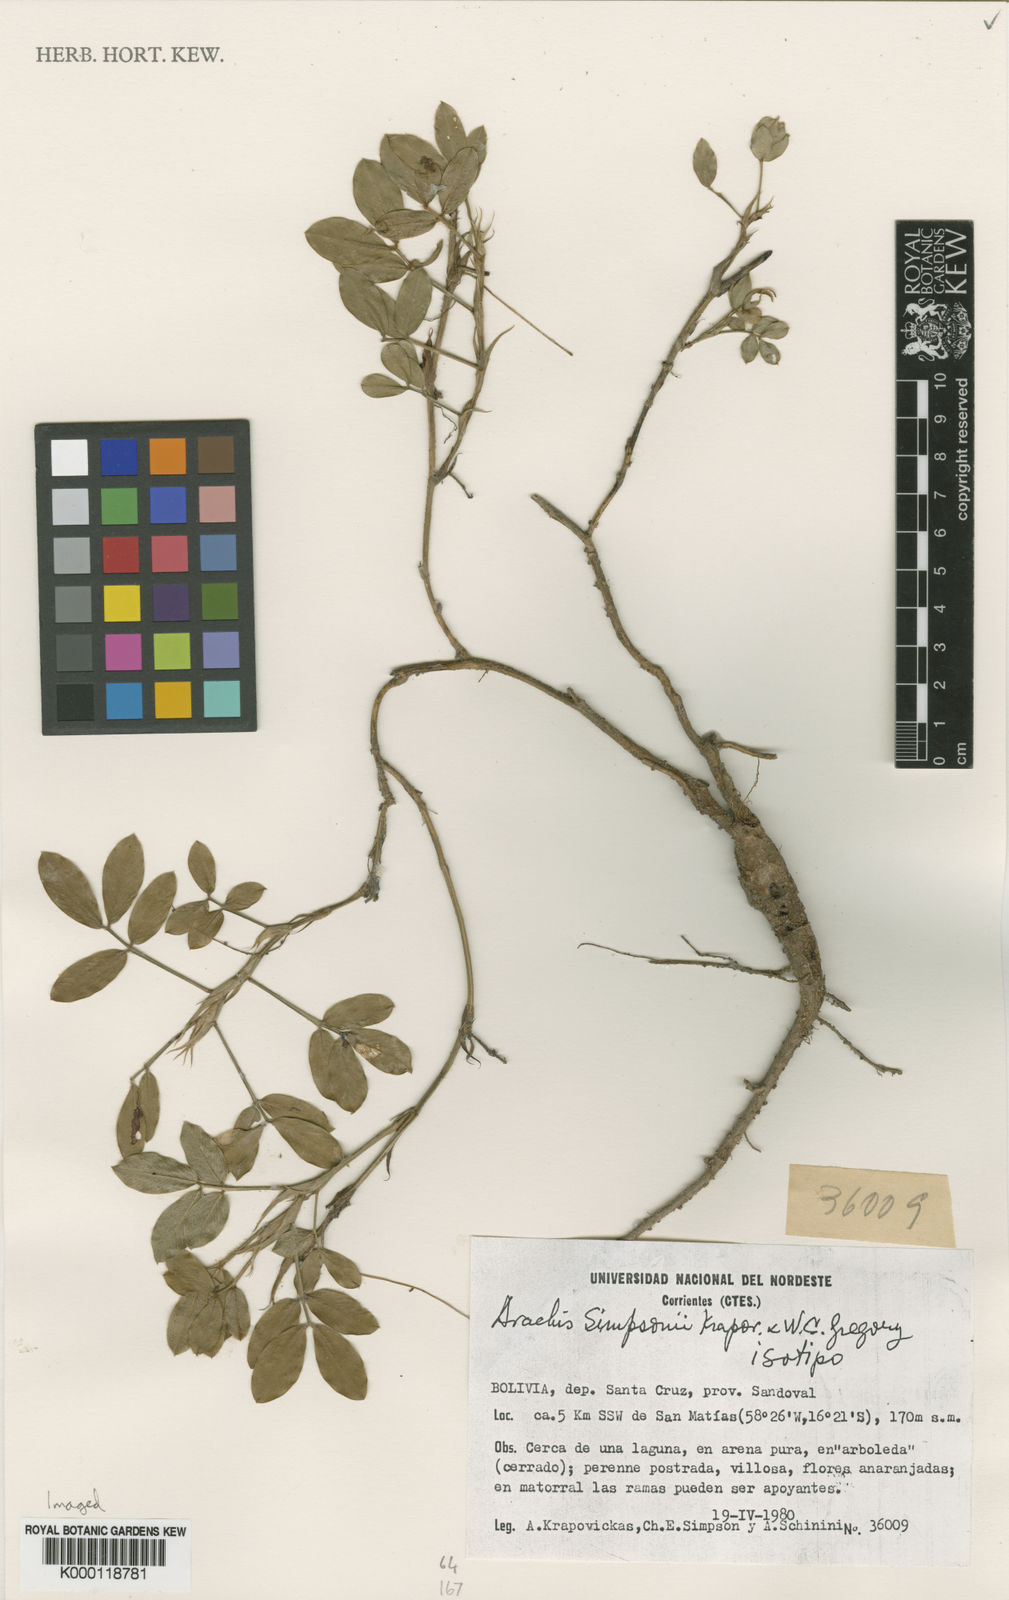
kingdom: Plantae
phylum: Tracheophyta
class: Magnoliopsida
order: Fabales
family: Fabaceae
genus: Arachis
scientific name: Arachis simpsonii
